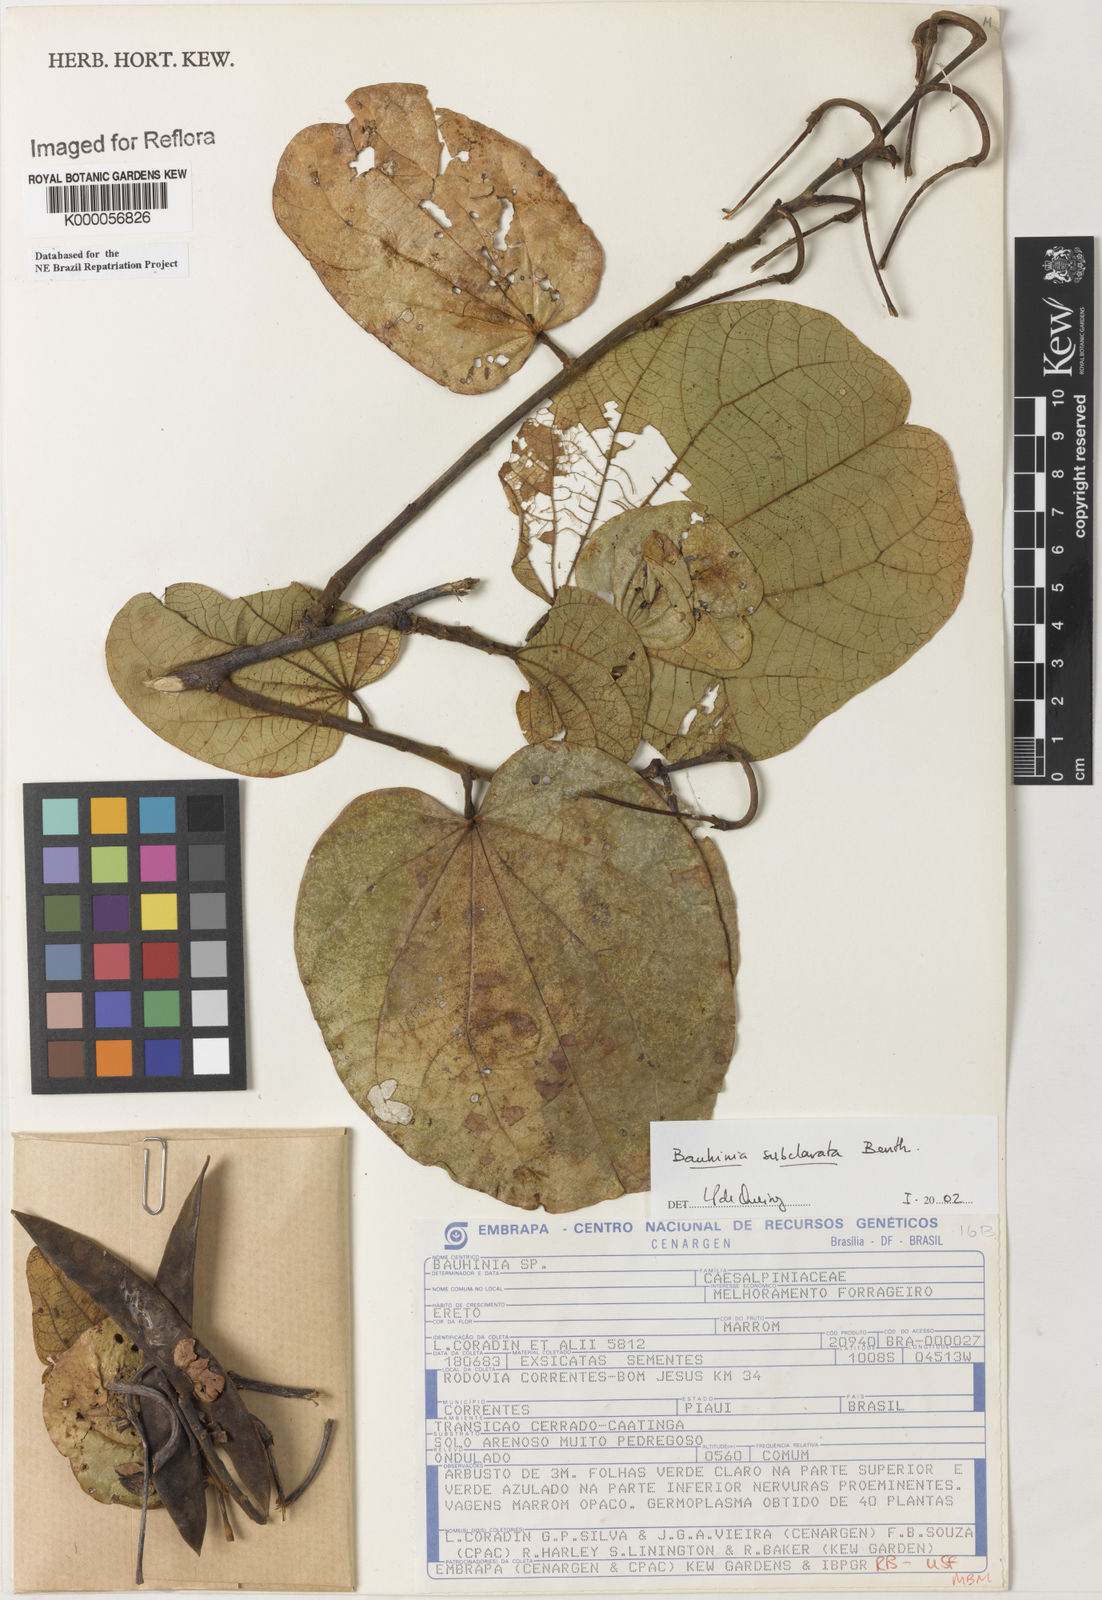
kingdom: Plantae
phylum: Tracheophyta
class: Magnoliopsida
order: Fabales
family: Fabaceae
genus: Bauhinia
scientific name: Bauhinia subclavata
